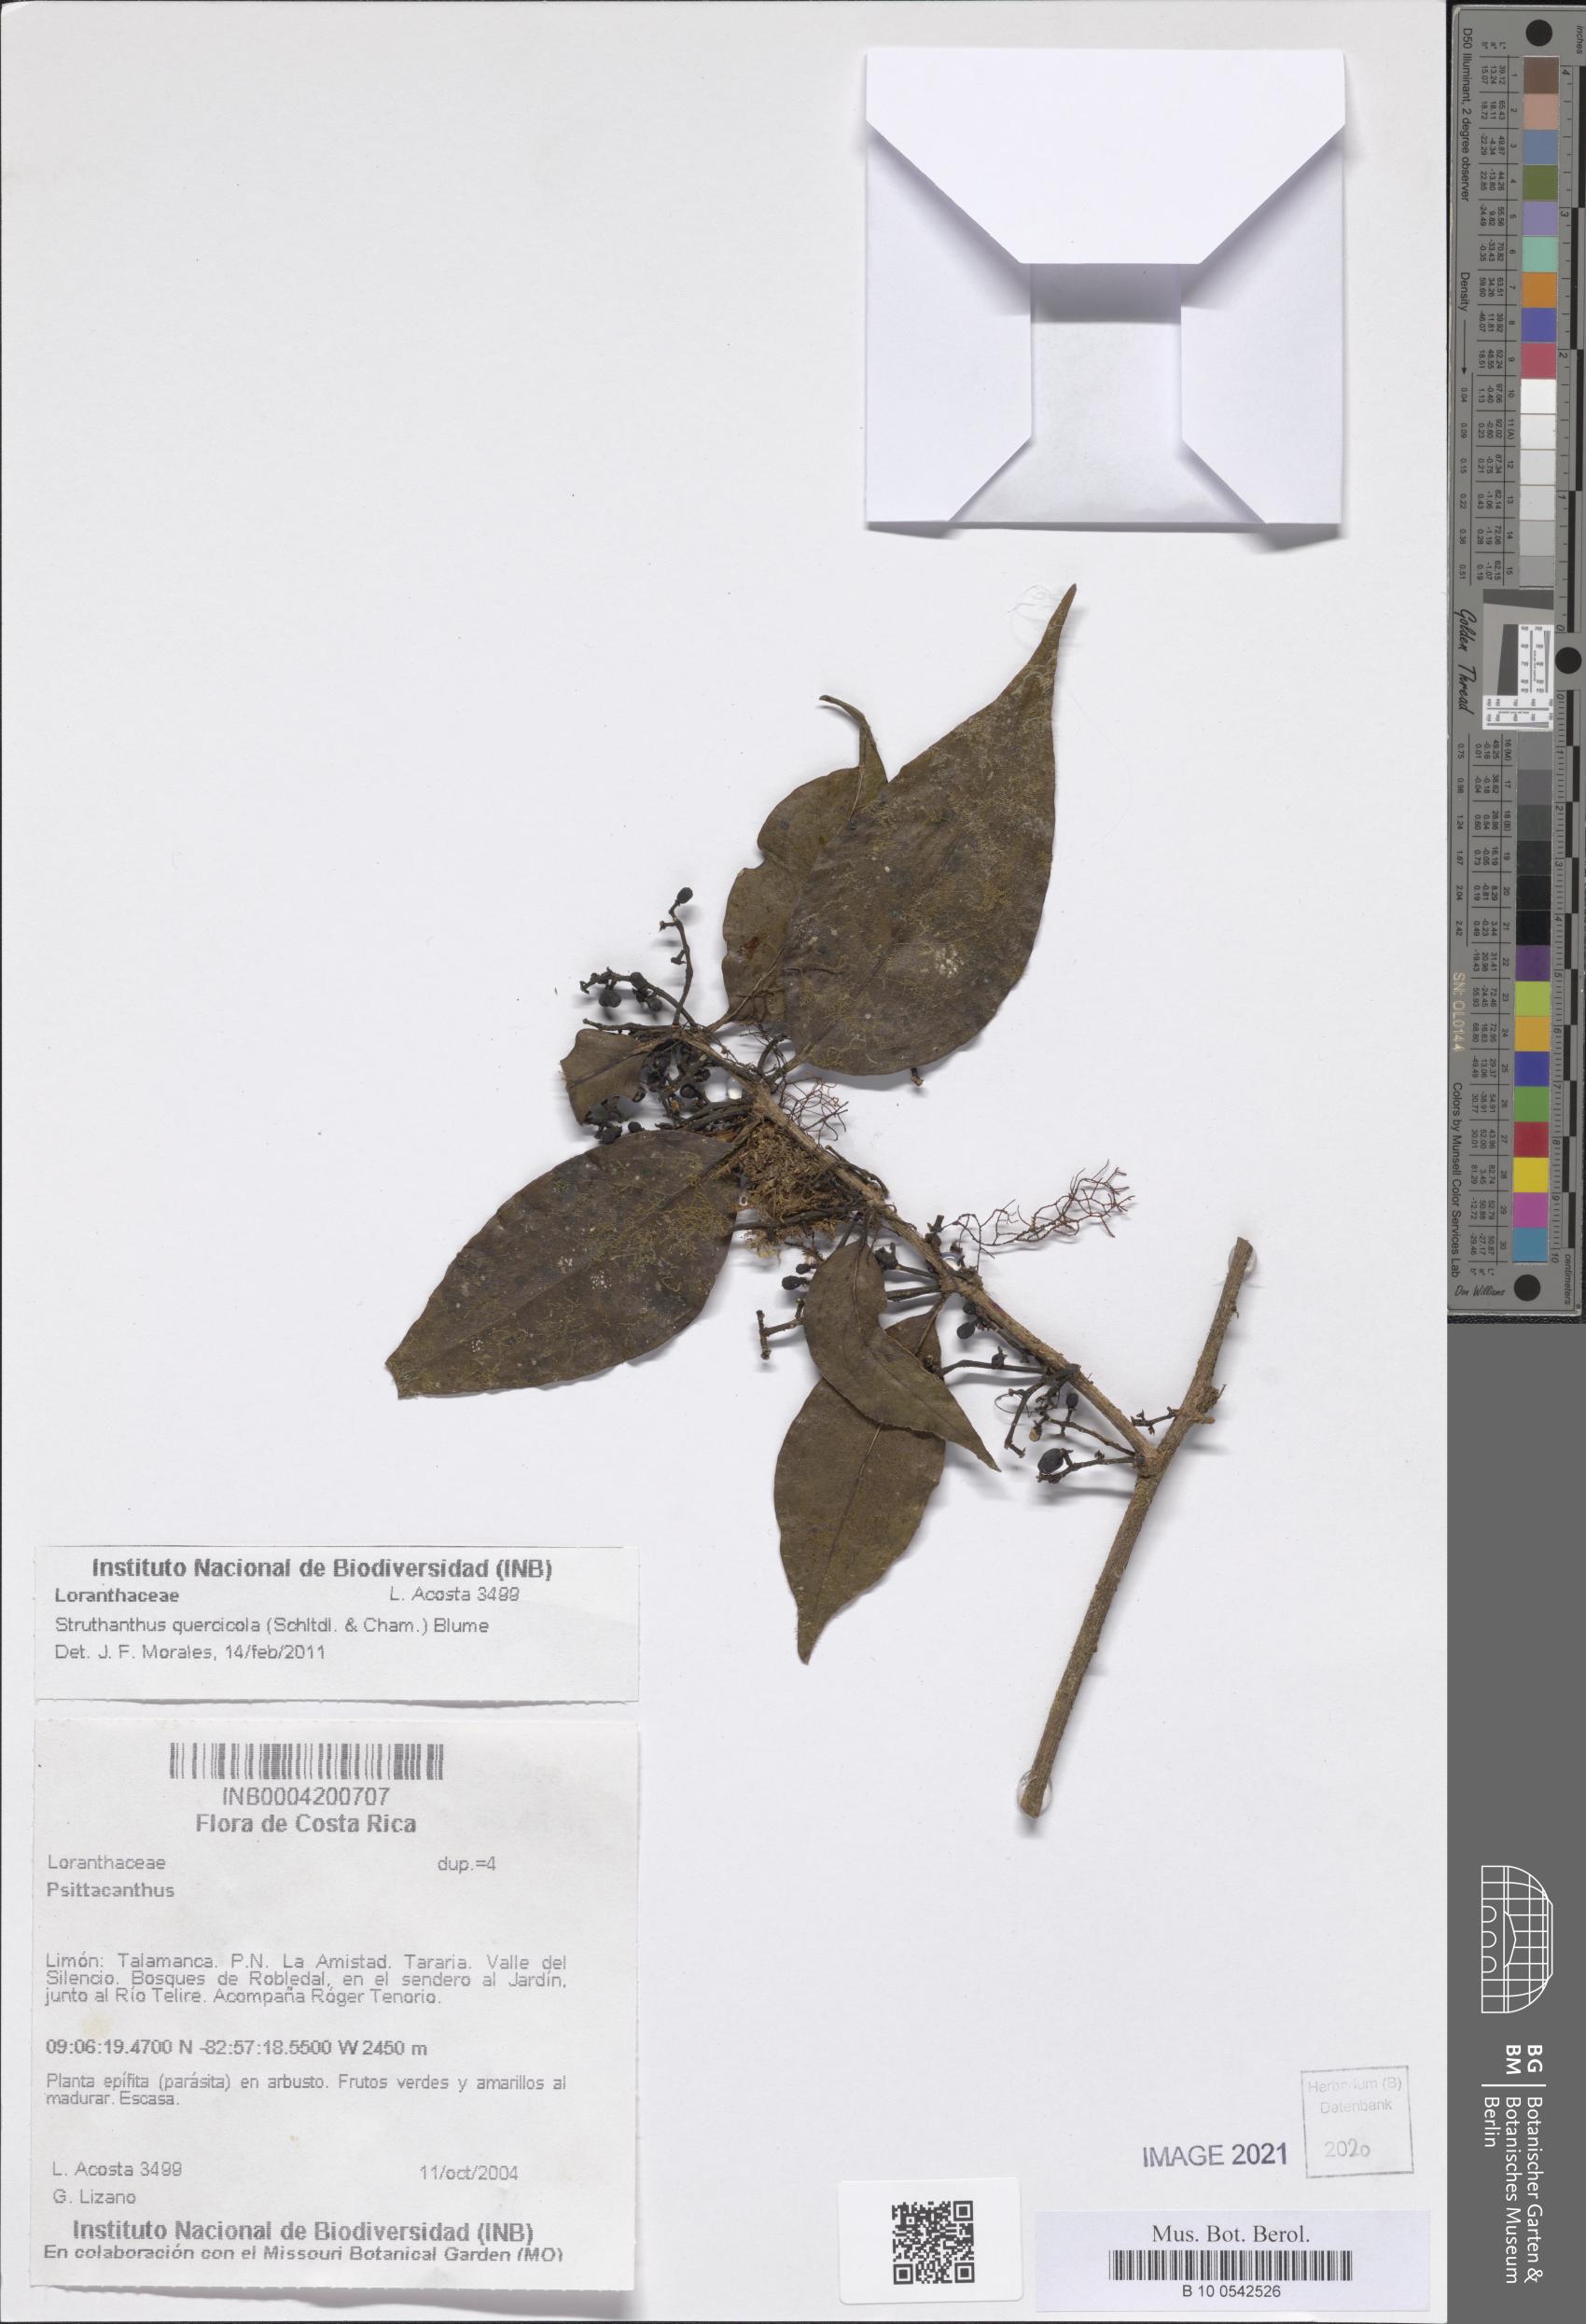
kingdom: Plantae
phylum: Tracheophyta
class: Magnoliopsida
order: Santalales
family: Loranthaceae
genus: Struthanthus
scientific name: Struthanthus quercicola
